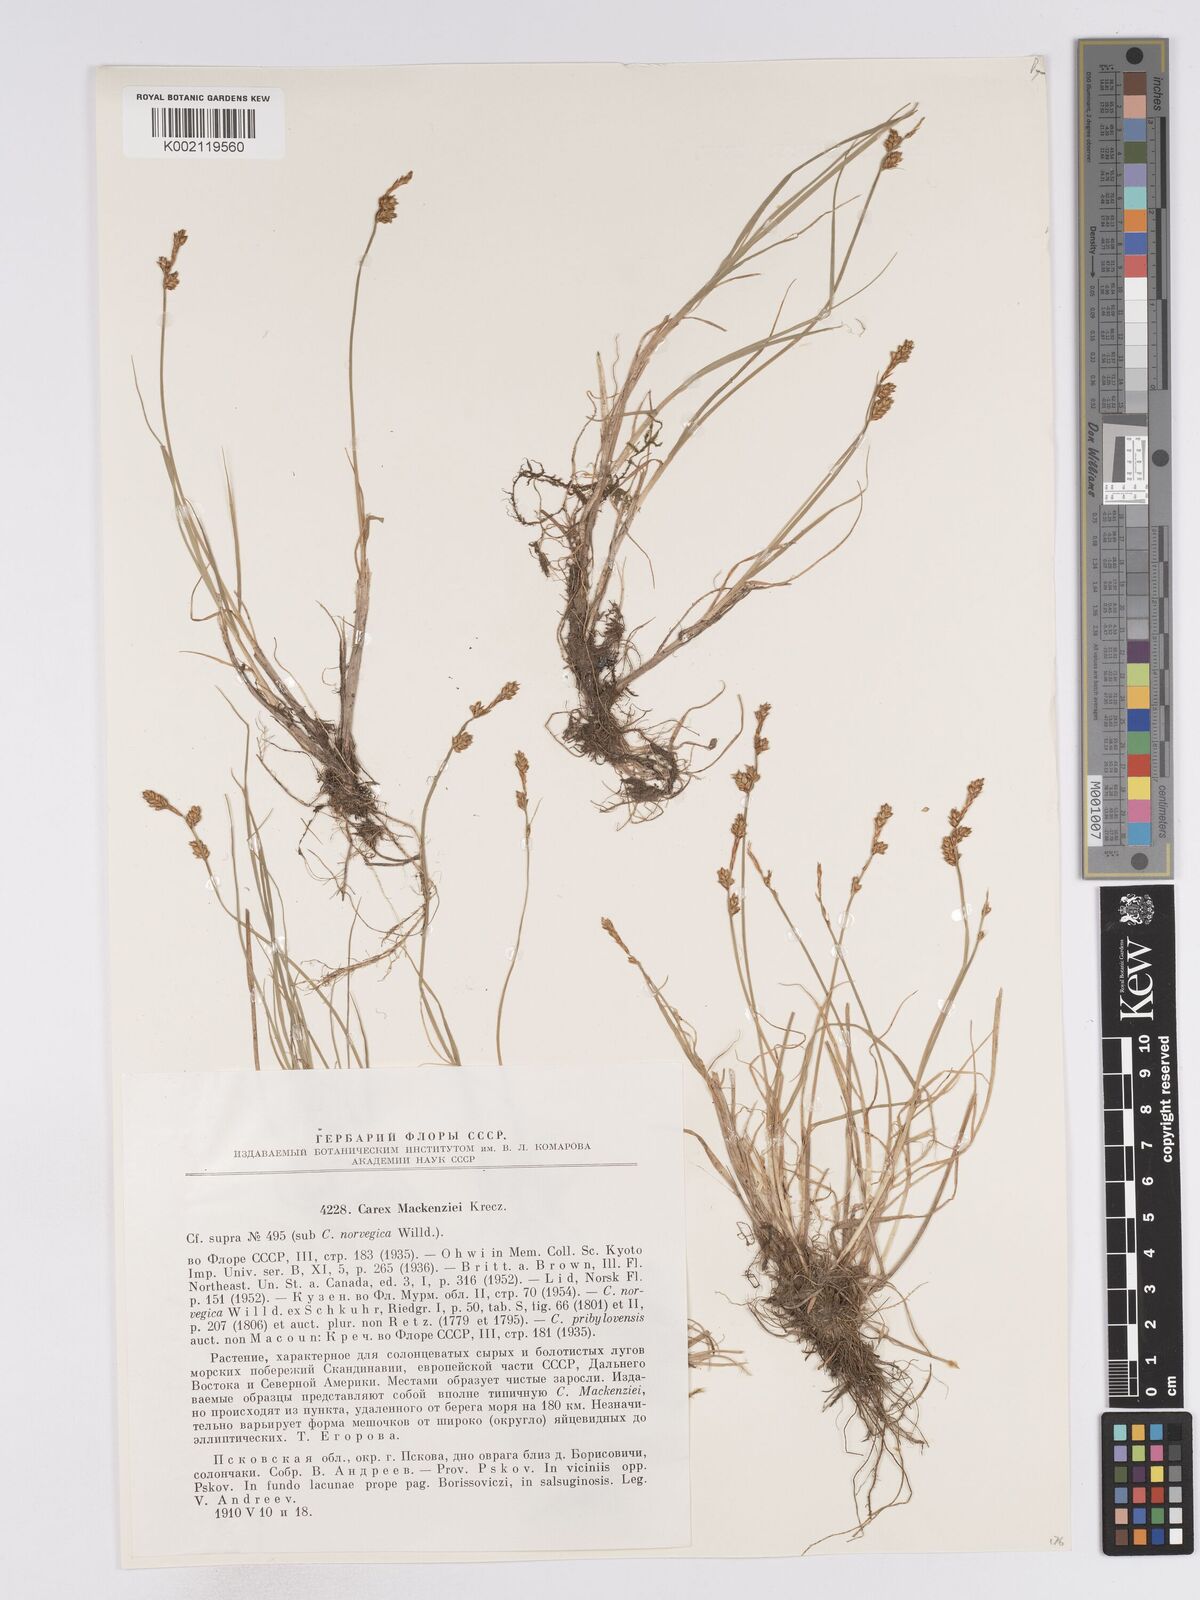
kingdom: Plantae
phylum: Tracheophyta
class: Liliopsida
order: Poales
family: Cyperaceae
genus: Carex
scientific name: Carex mackenziei
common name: Mackenzie's sedge
